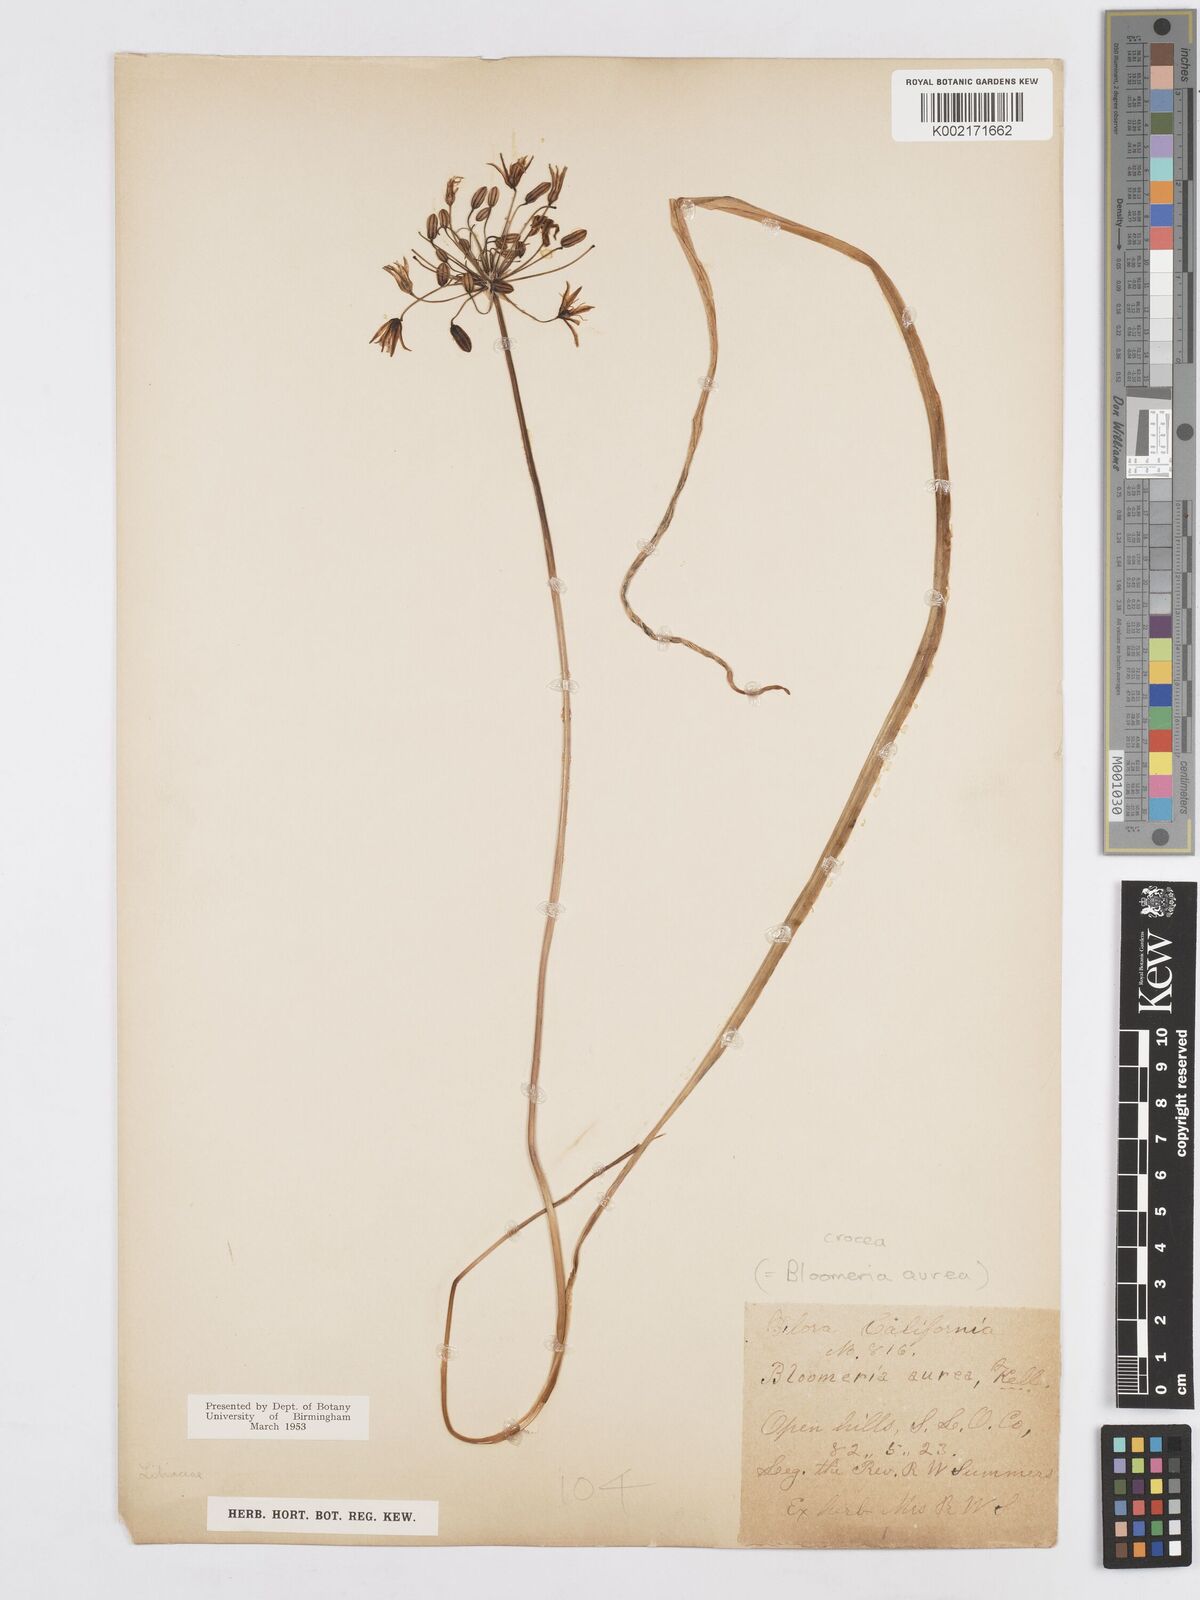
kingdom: Plantae
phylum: Tracheophyta
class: Liliopsida
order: Asparagales
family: Asparagaceae
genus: Bloomeria
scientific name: Bloomeria crocea
